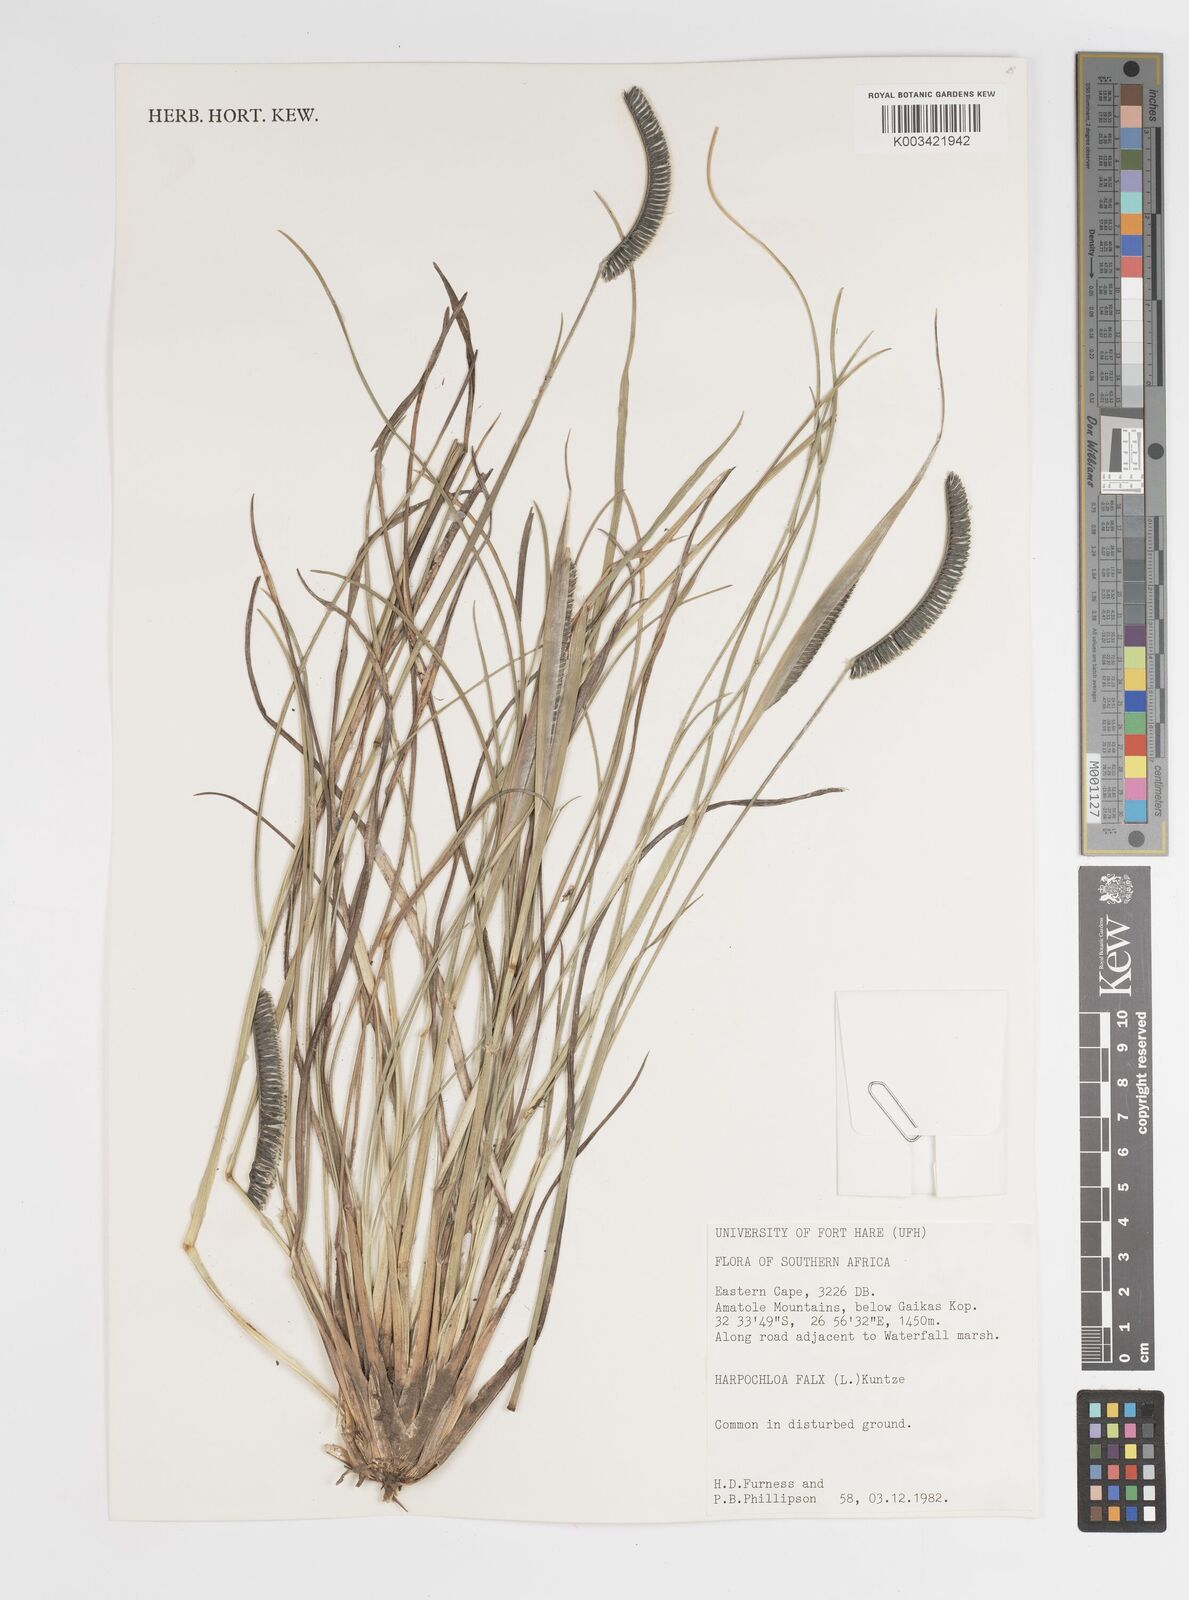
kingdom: Plantae
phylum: Tracheophyta
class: Liliopsida
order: Poales
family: Poaceae
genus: Harpochloa
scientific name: Harpochloa falx
